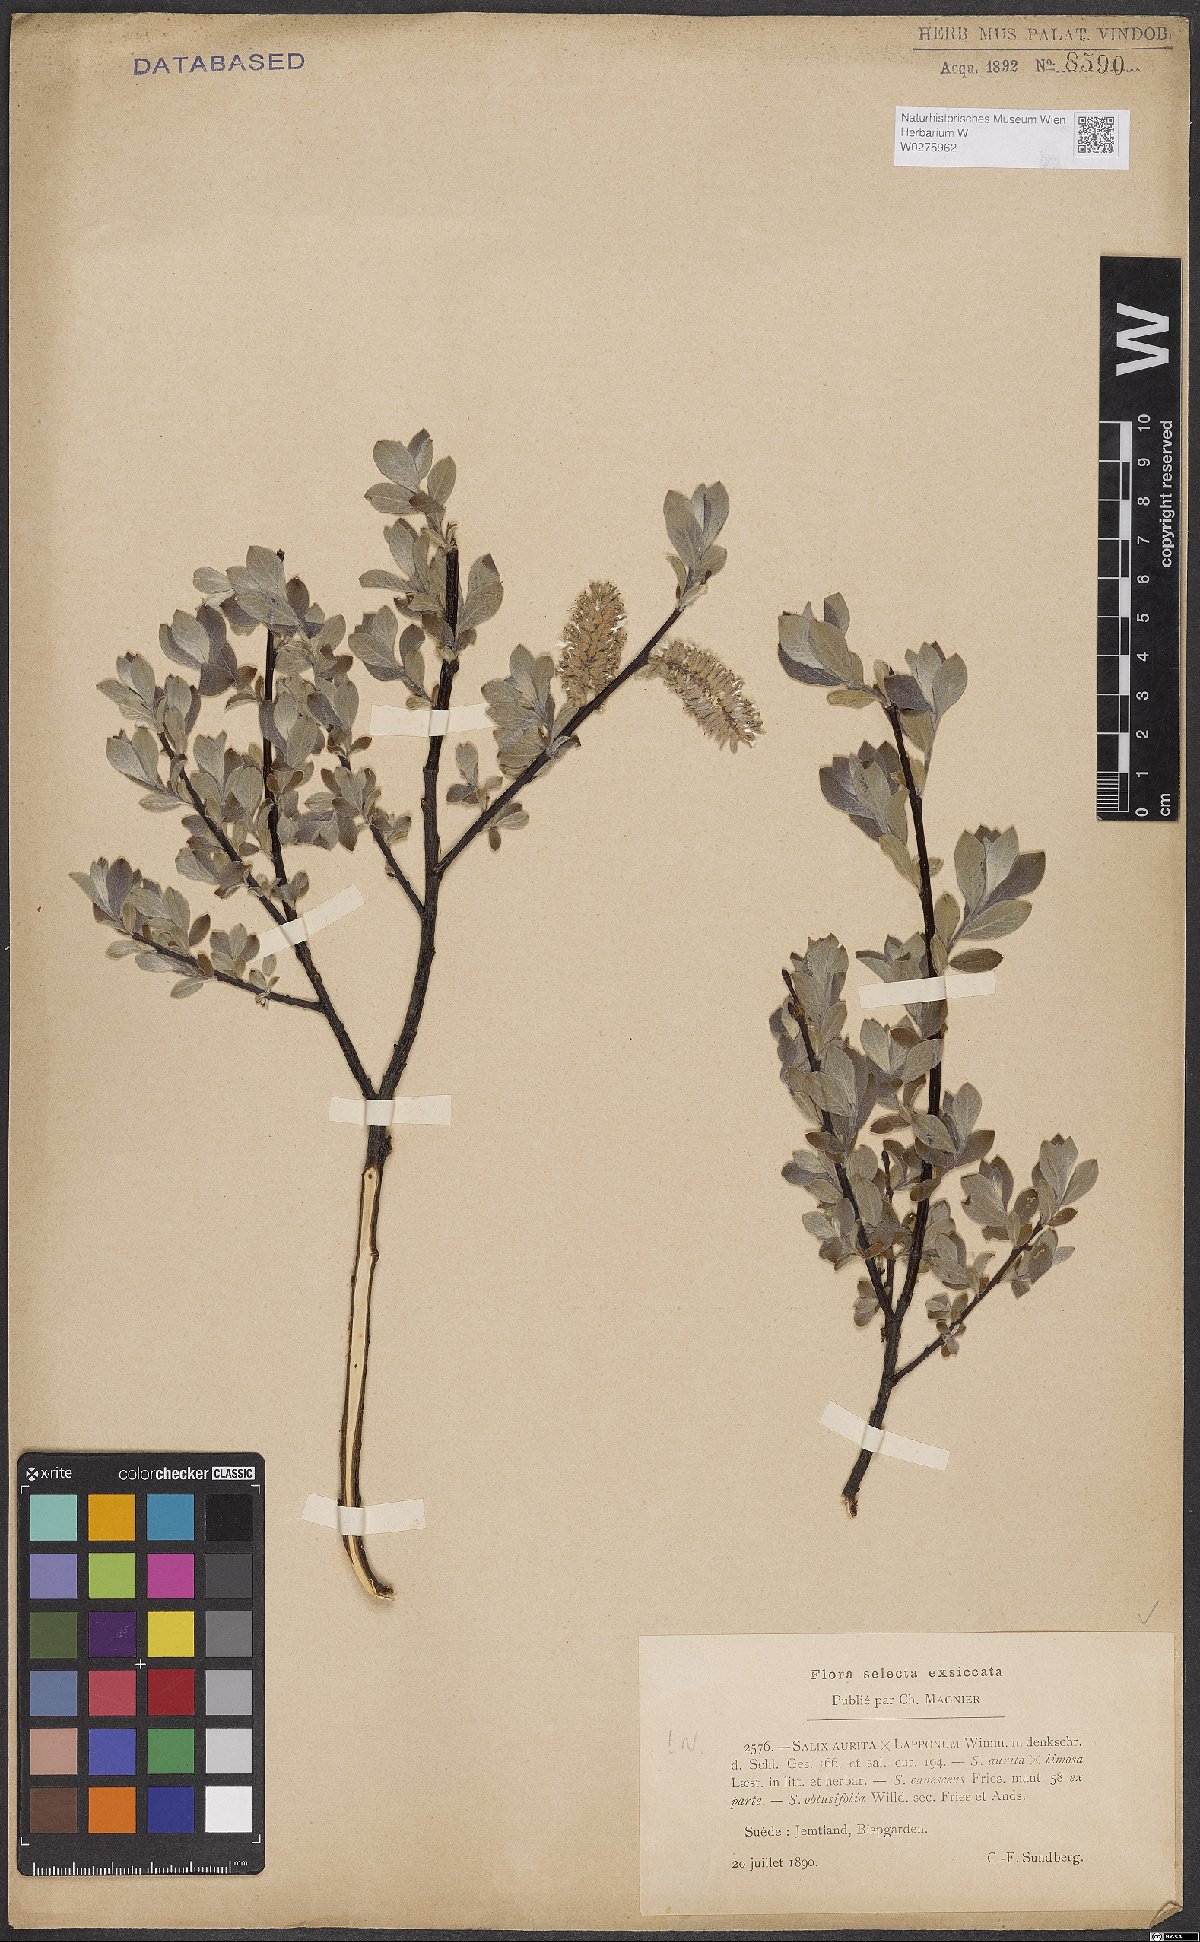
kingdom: Plantae
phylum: Tracheophyta
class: Magnoliopsida
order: Malpighiales
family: Salicaceae
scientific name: Salicaceae
